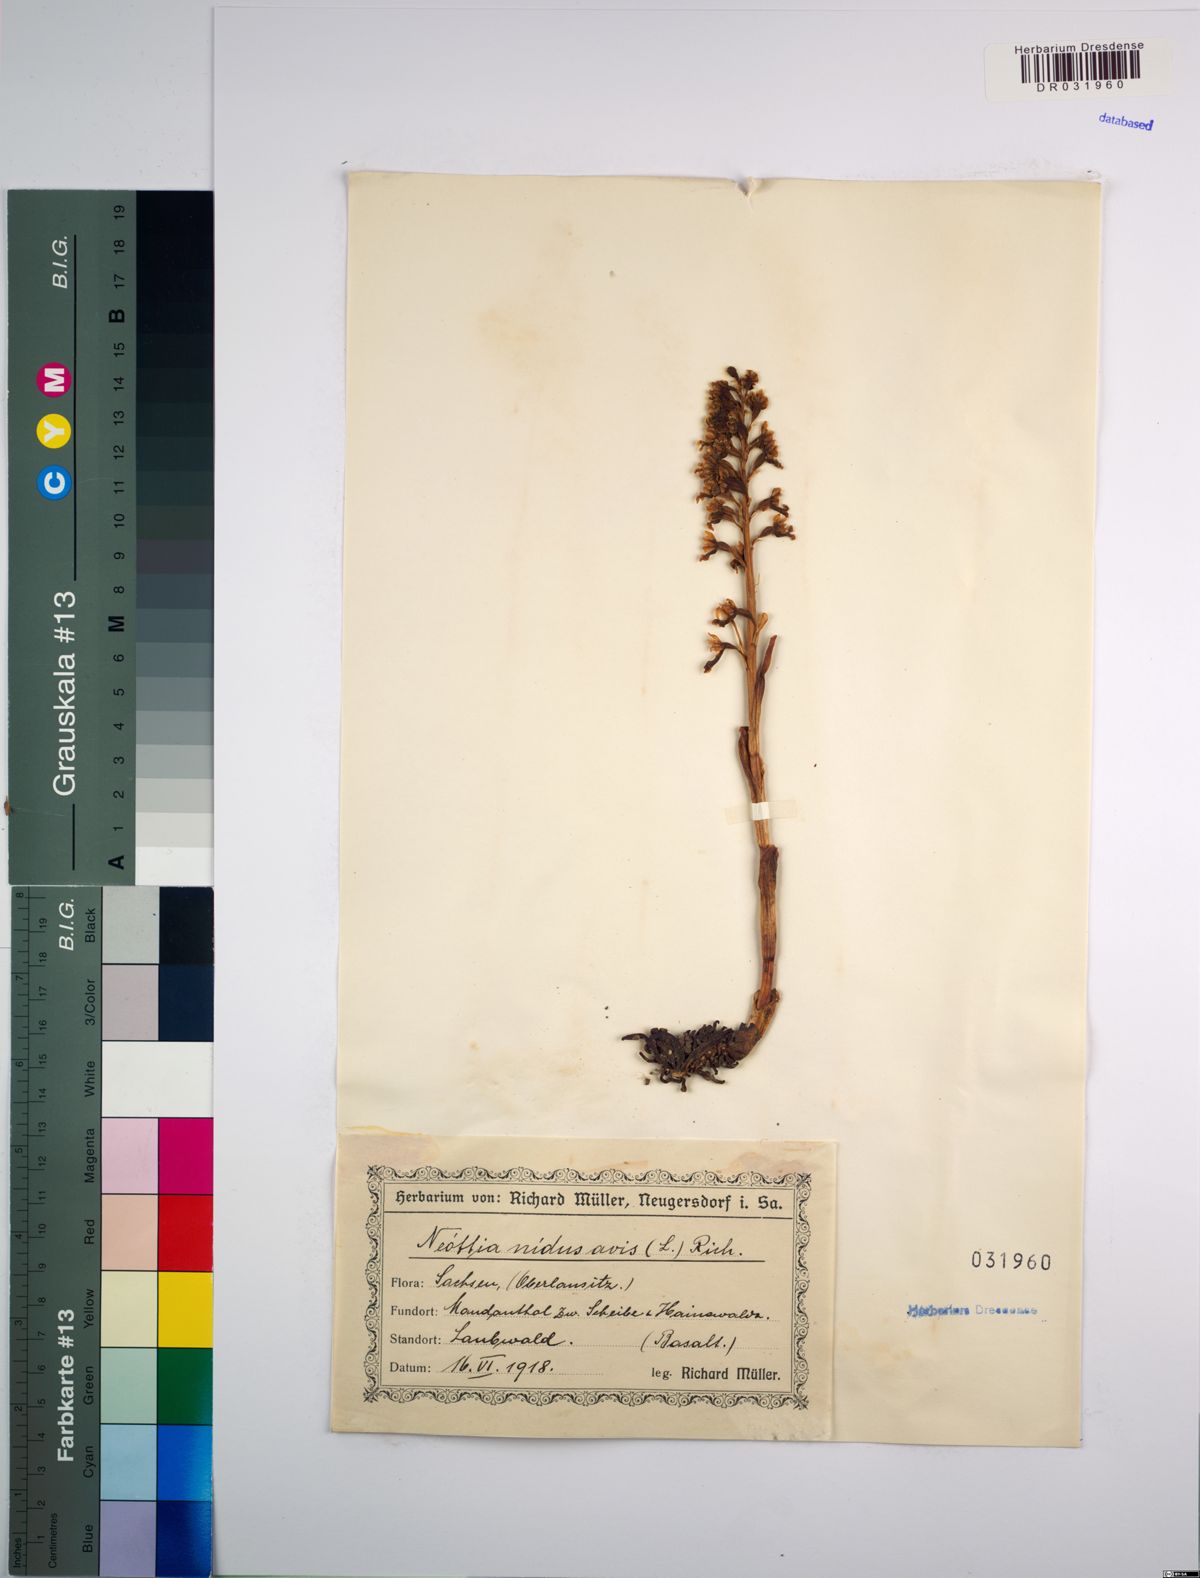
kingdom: Plantae
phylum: Tracheophyta
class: Liliopsida
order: Asparagales
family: Orchidaceae
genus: Neottia
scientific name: Neottia nidus-avis
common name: Bird's-nest orchid
